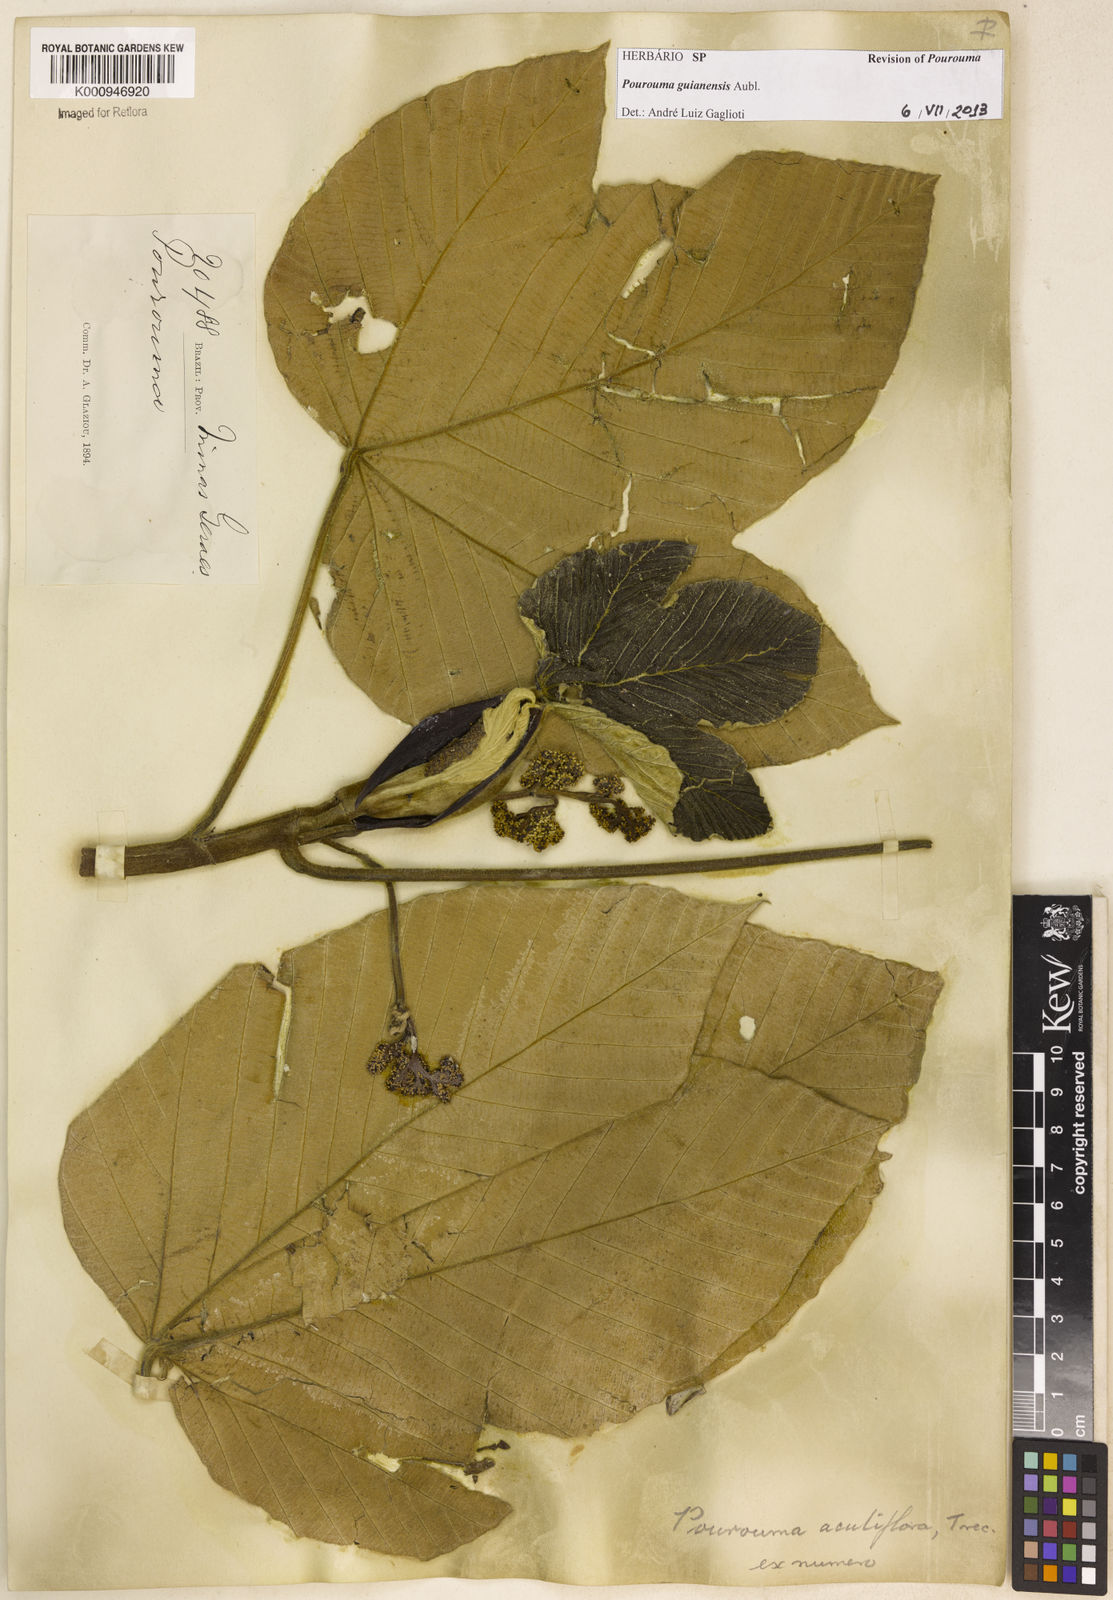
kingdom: Plantae
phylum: Tracheophyta
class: Magnoliopsida
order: Rosales
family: Urticaceae
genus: Pourouma
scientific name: Pourouma guianensis
